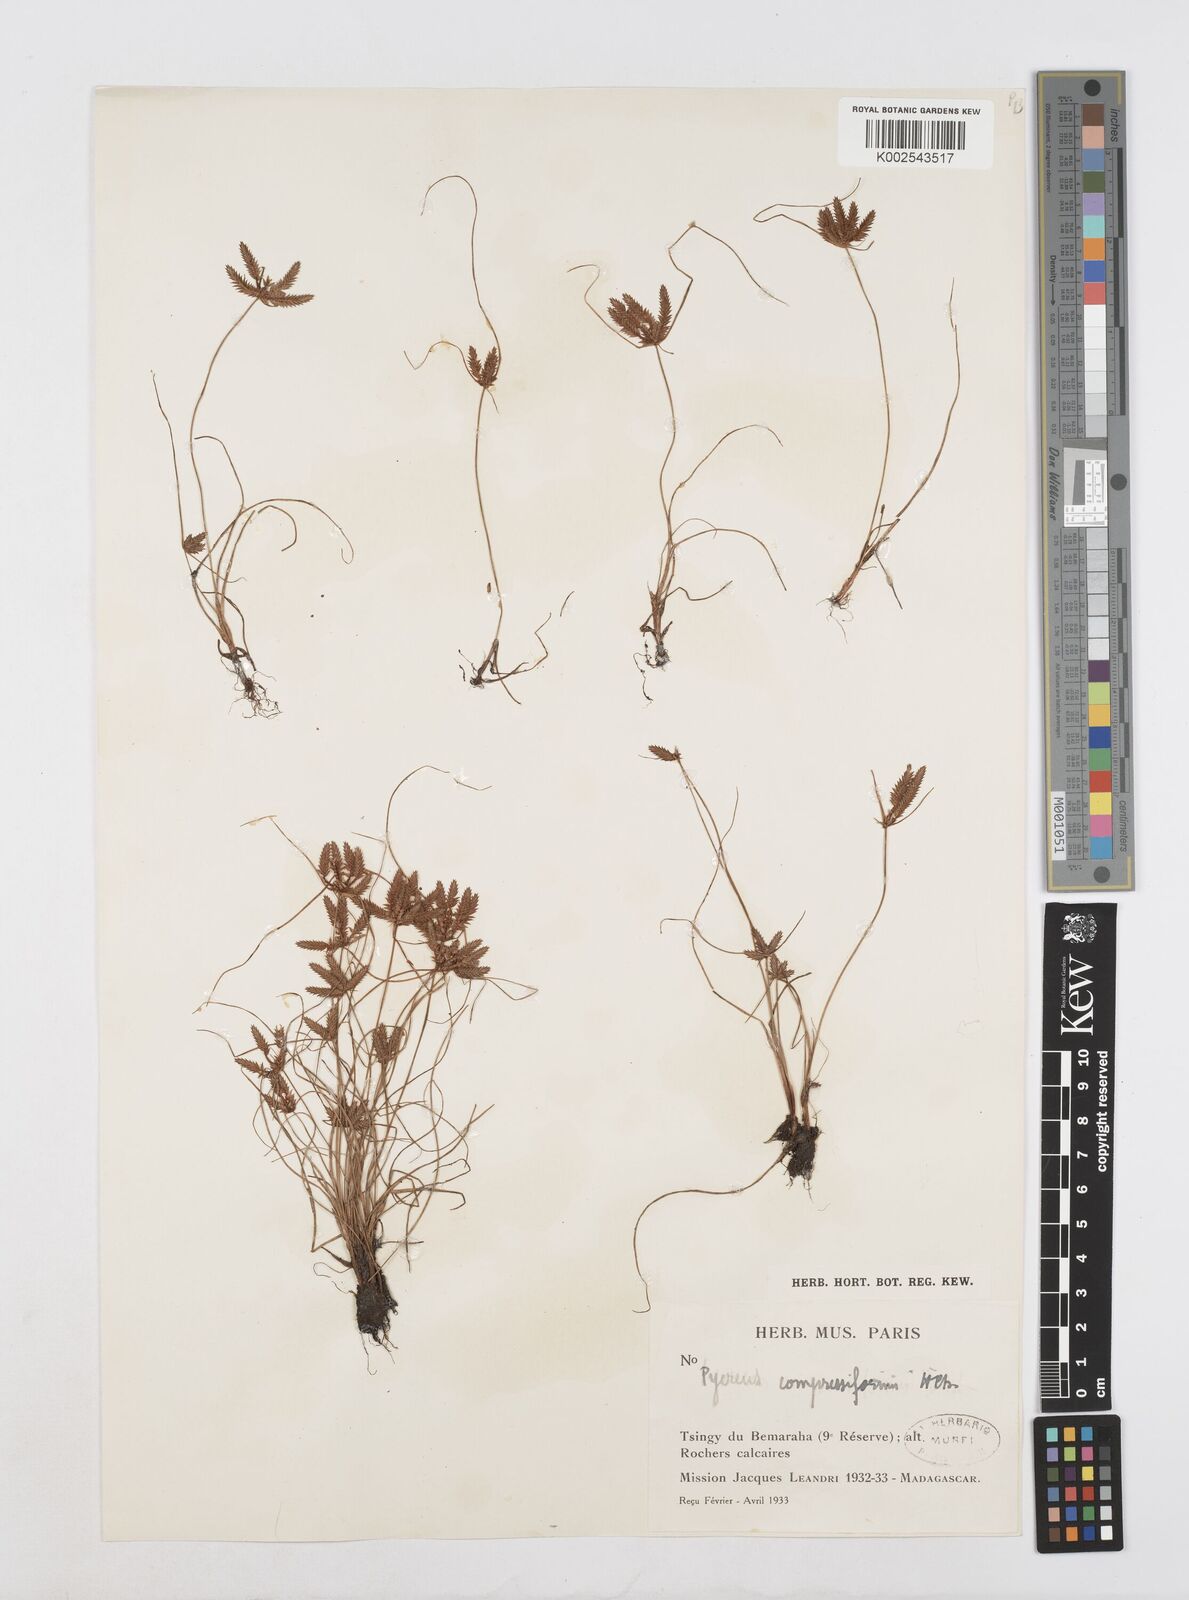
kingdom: Plantae
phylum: Tracheophyta
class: Liliopsida
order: Poales
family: Cyperaceae
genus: Cyperus
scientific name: Cyperus compressiformis
